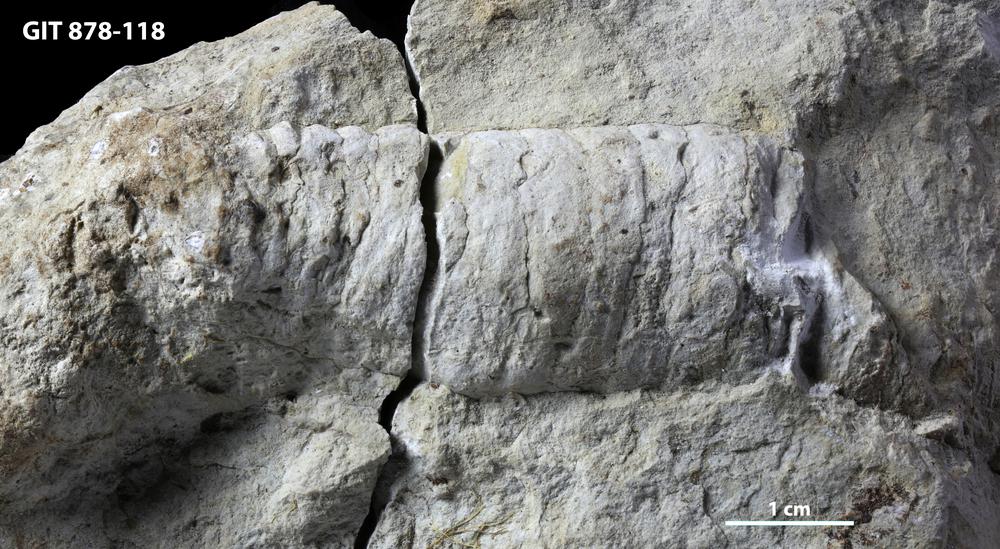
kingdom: Animalia
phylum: Mollusca
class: Cephalopoda
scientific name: Cephalopoda
